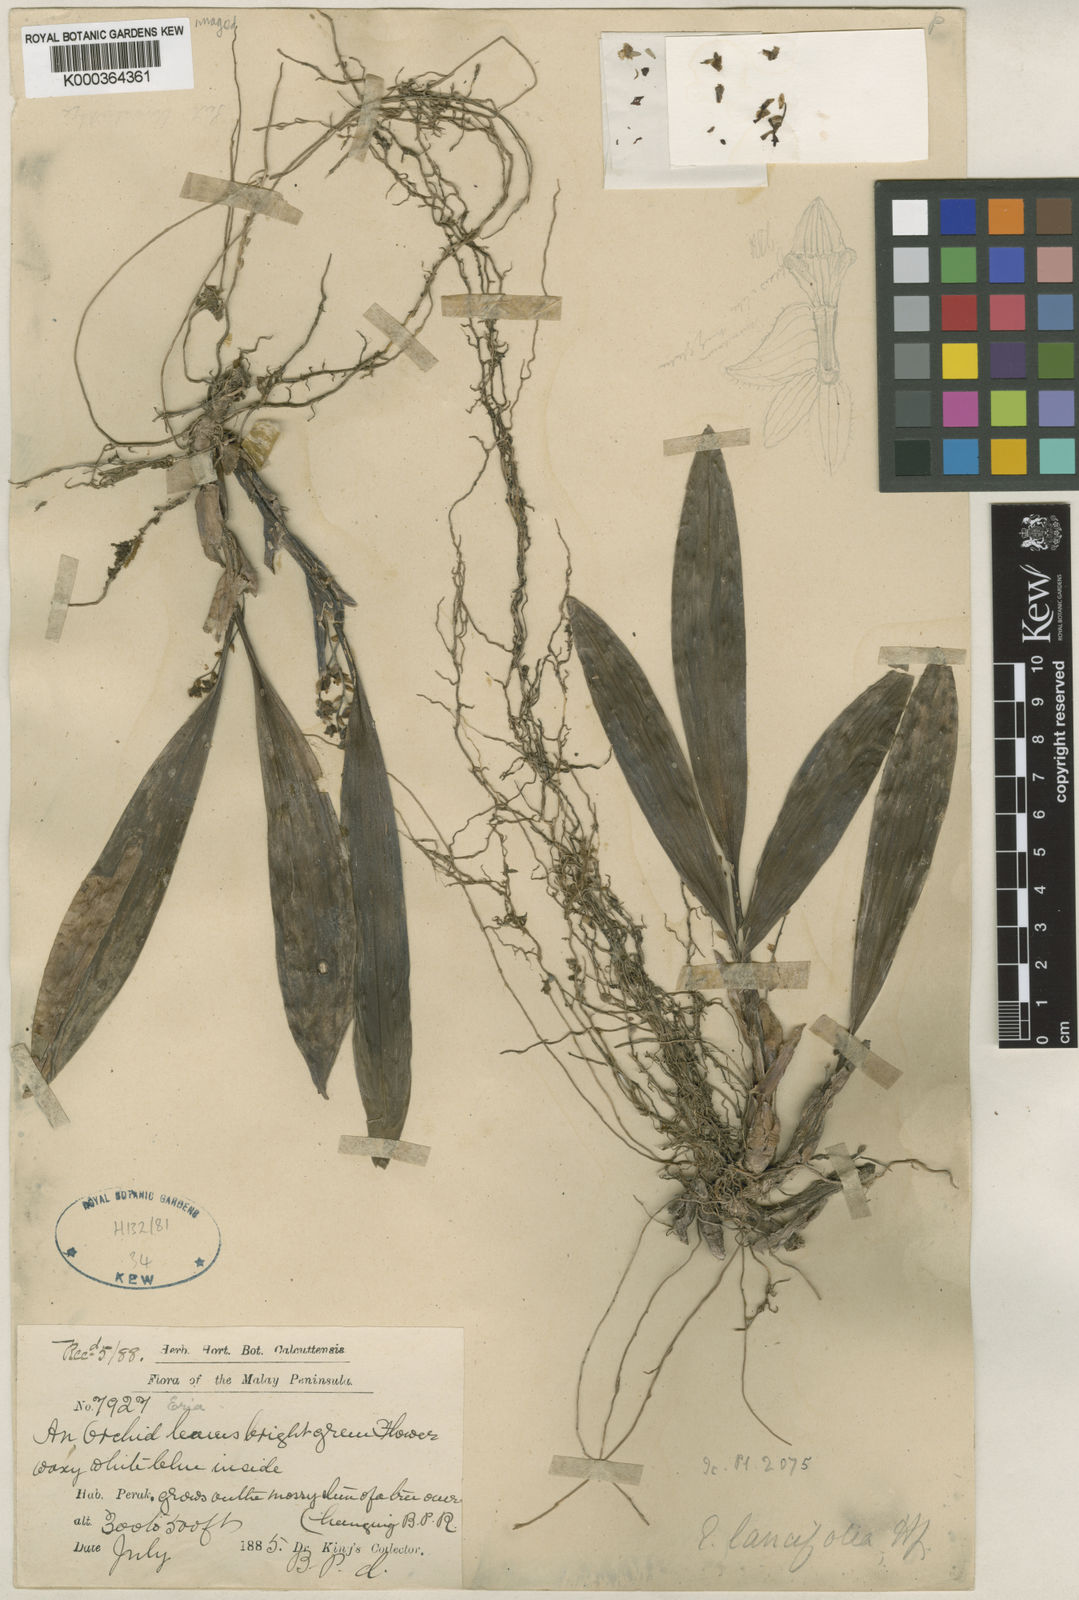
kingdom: Plantae
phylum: Tracheophyta
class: Liliopsida
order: Asparagales
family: Orchidaceae
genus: Bryobium
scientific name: Bryobium lancifolium
